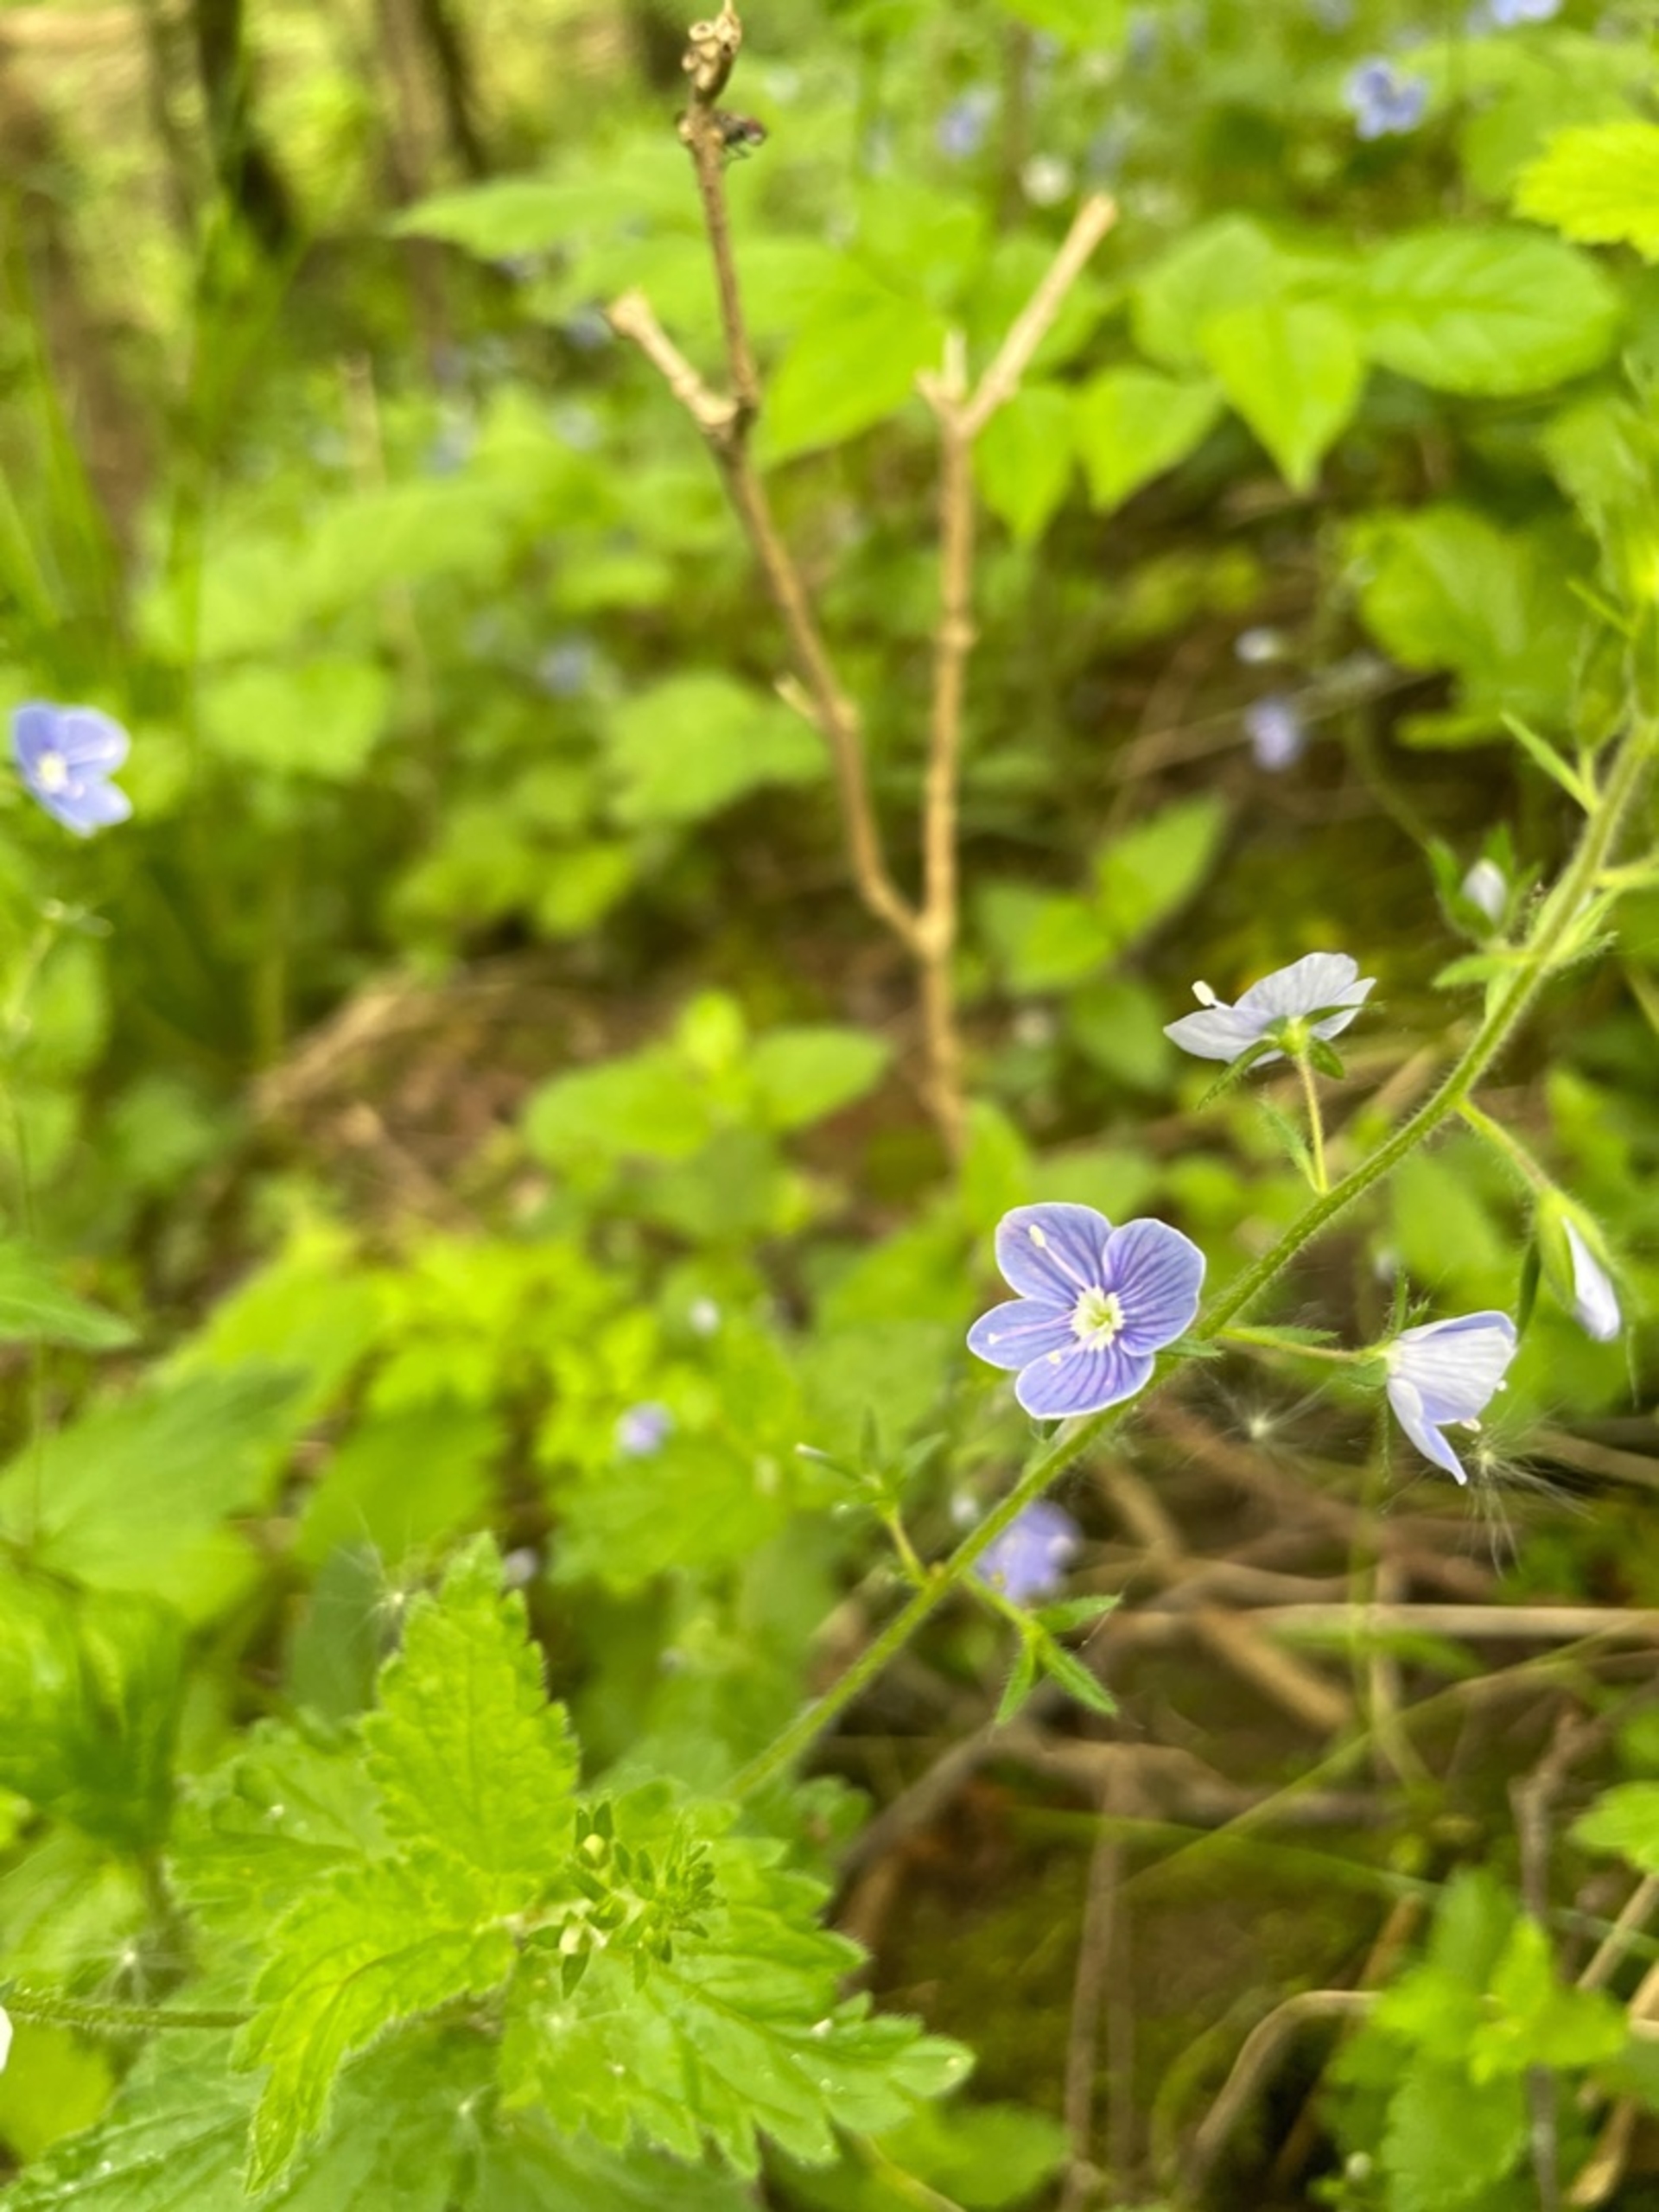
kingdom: Plantae
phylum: Tracheophyta
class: Magnoliopsida
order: Lamiales
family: Plantaginaceae
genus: Veronica
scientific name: Veronica chamaedrys
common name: Tveskægget ærenpris
